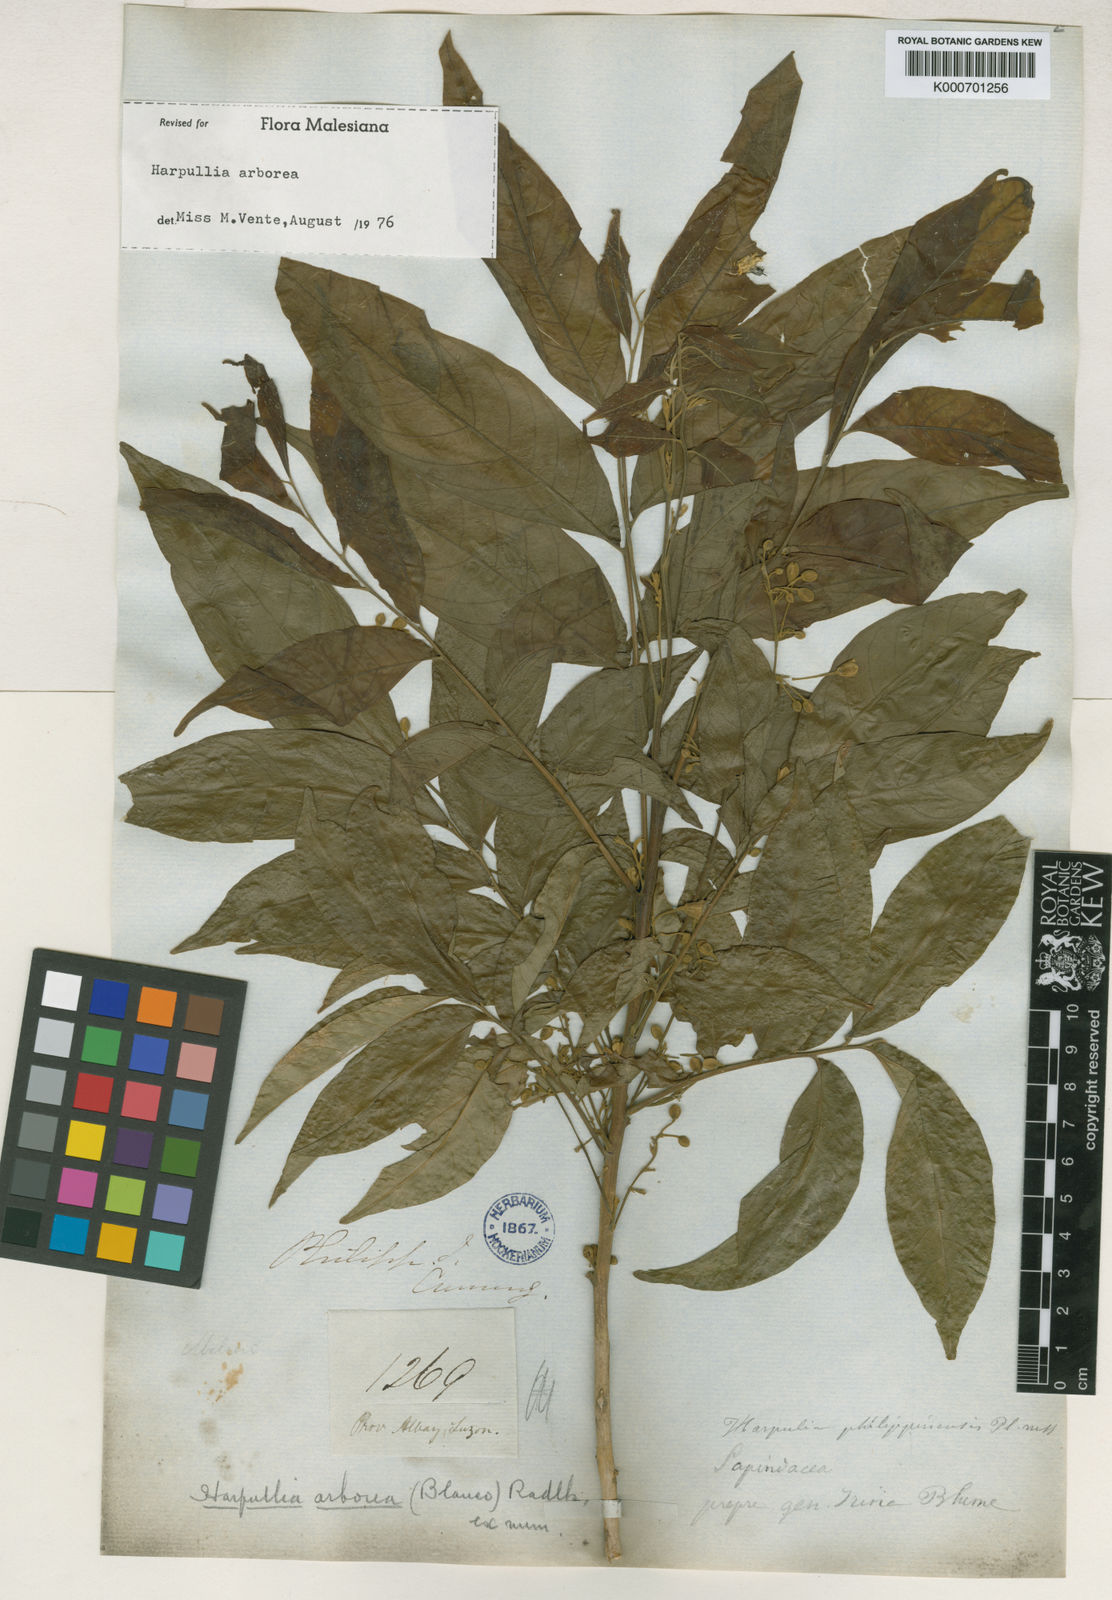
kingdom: Plantae
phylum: Tracheophyta
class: Magnoliopsida
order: Sapindales
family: Sapindaceae
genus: Harpullia
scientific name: Harpullia arborea
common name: Tulip-wood tree
